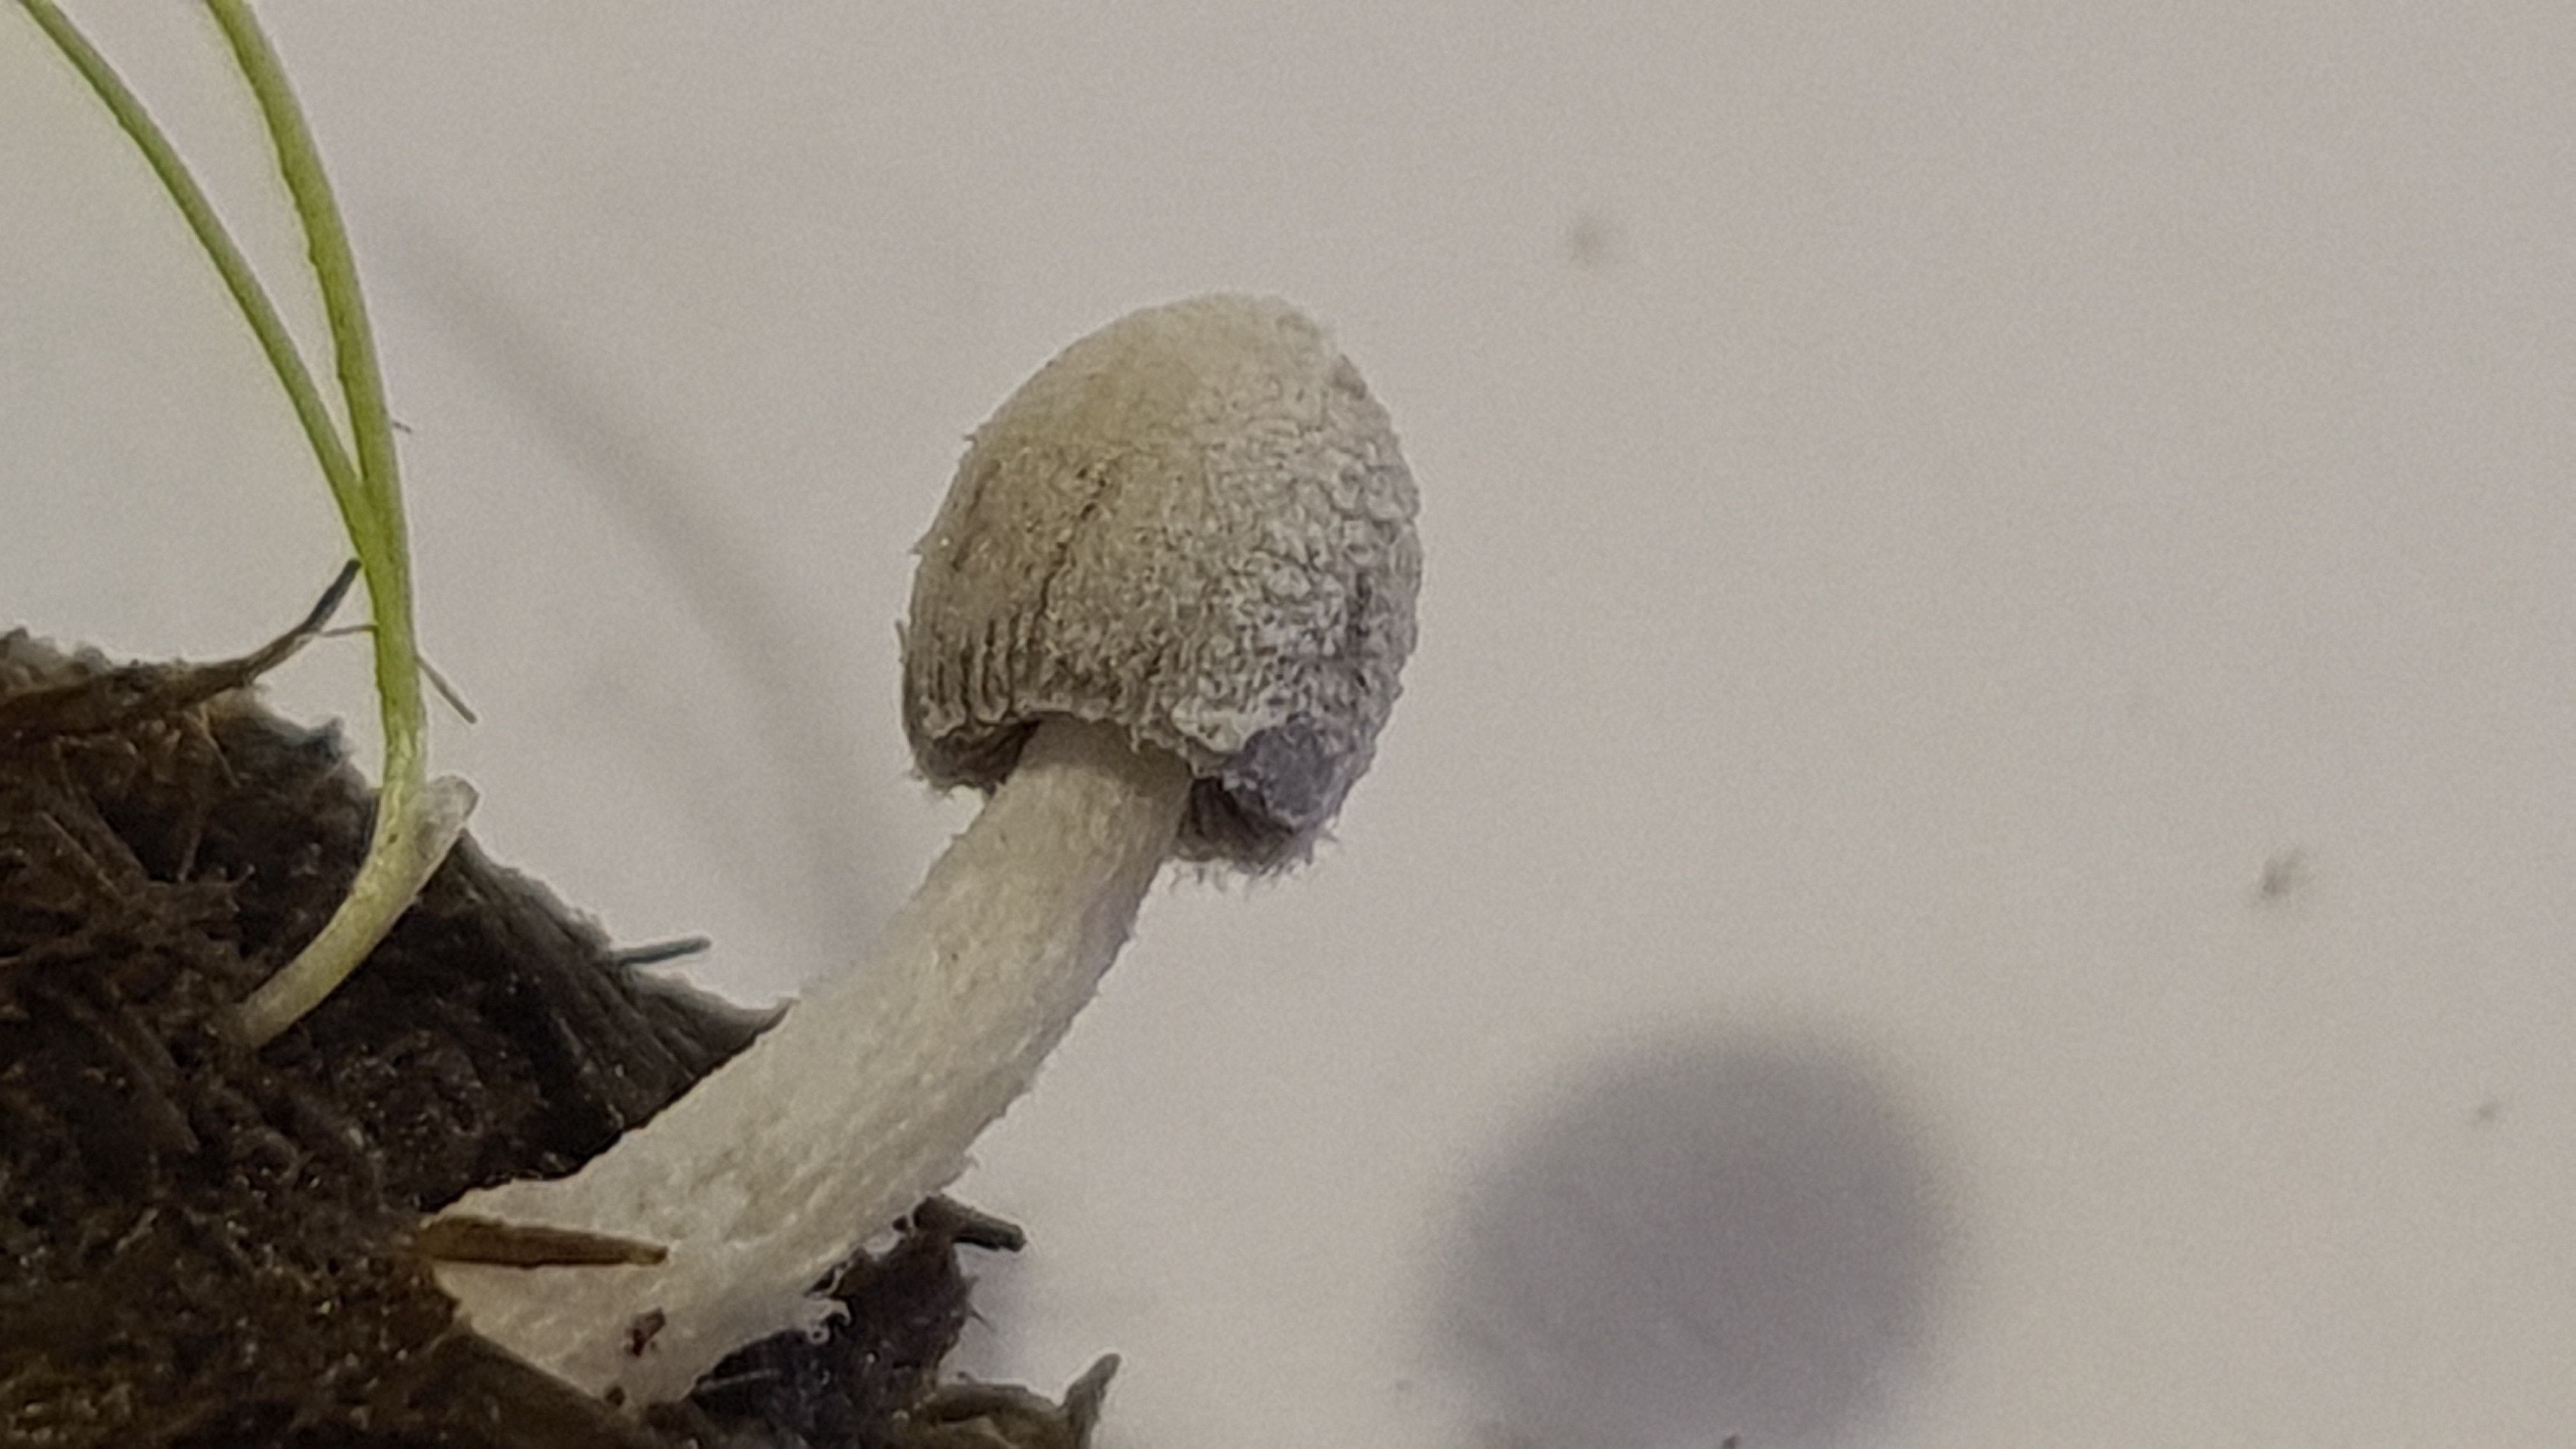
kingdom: Fungi
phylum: Basidiomycota
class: Agaricomycetes
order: Agaricales
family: Psathyrellaceae
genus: Coprinopsis
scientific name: Coprinopsis nivea
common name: snehvid blækhat
